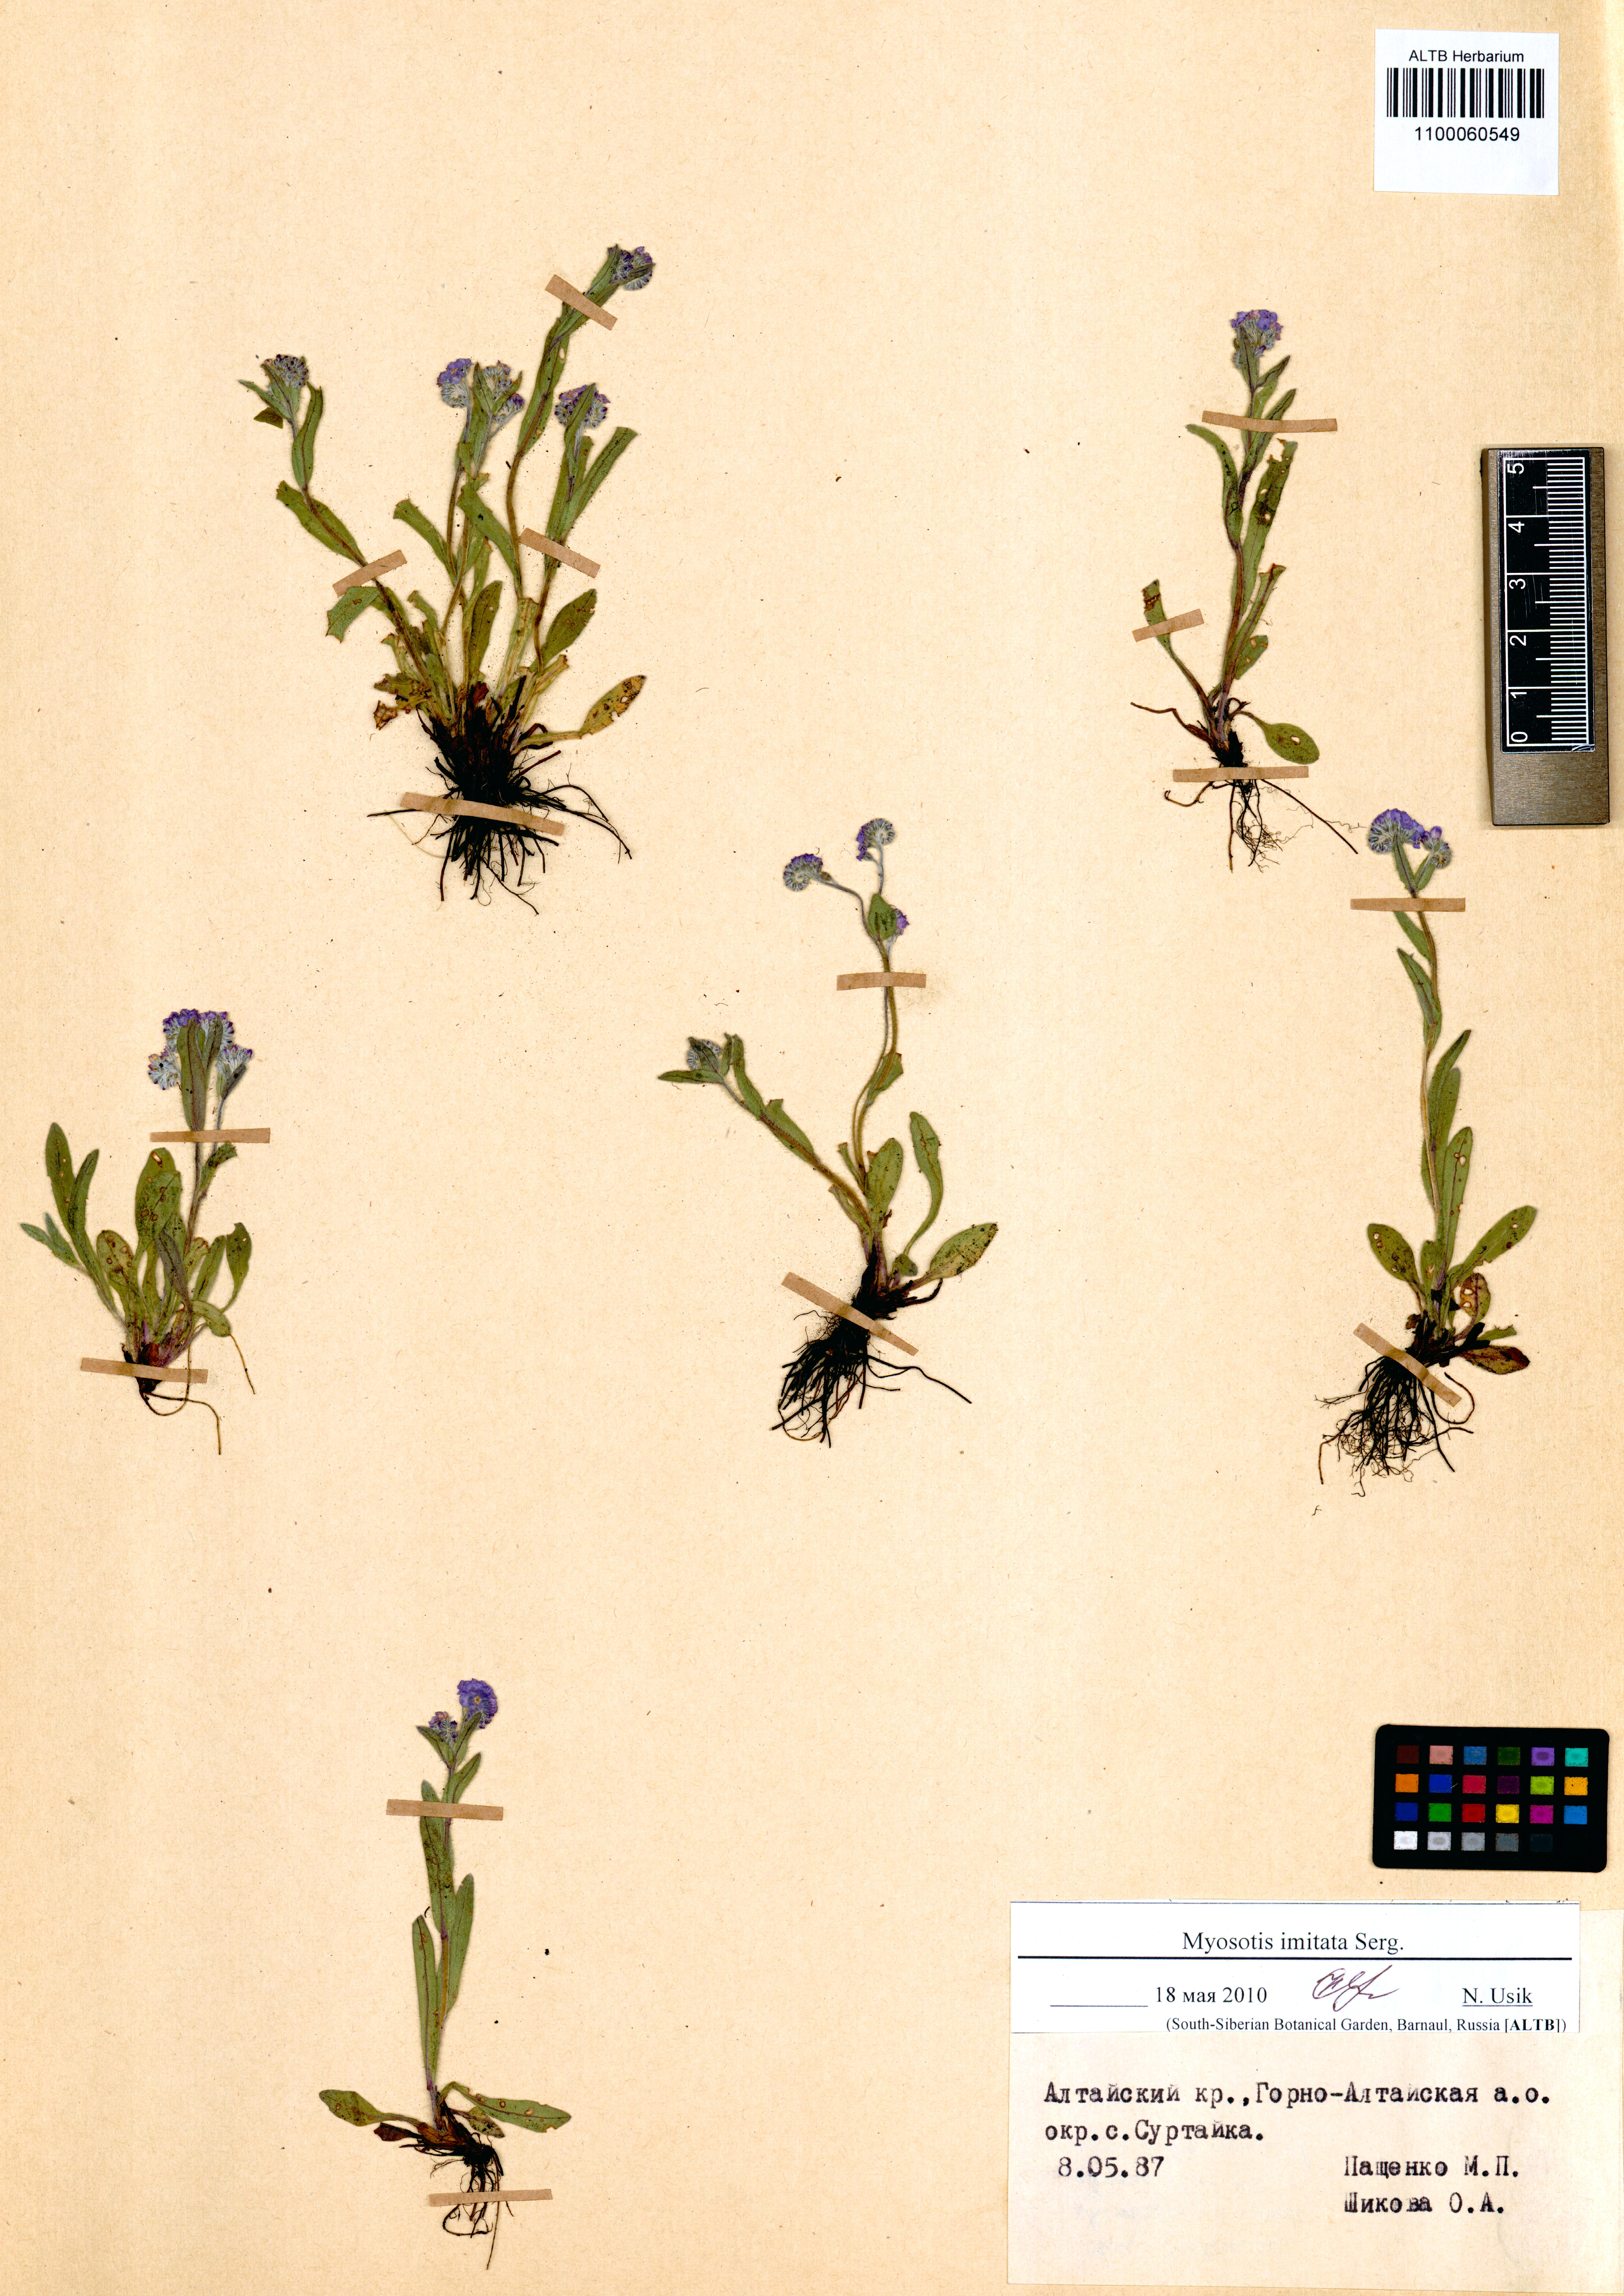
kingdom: Plantae
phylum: Tracheophyta
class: Magnoliopsida
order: Boraginales
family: Boraginaceae
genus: Myosotis
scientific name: Myosotis imitata
